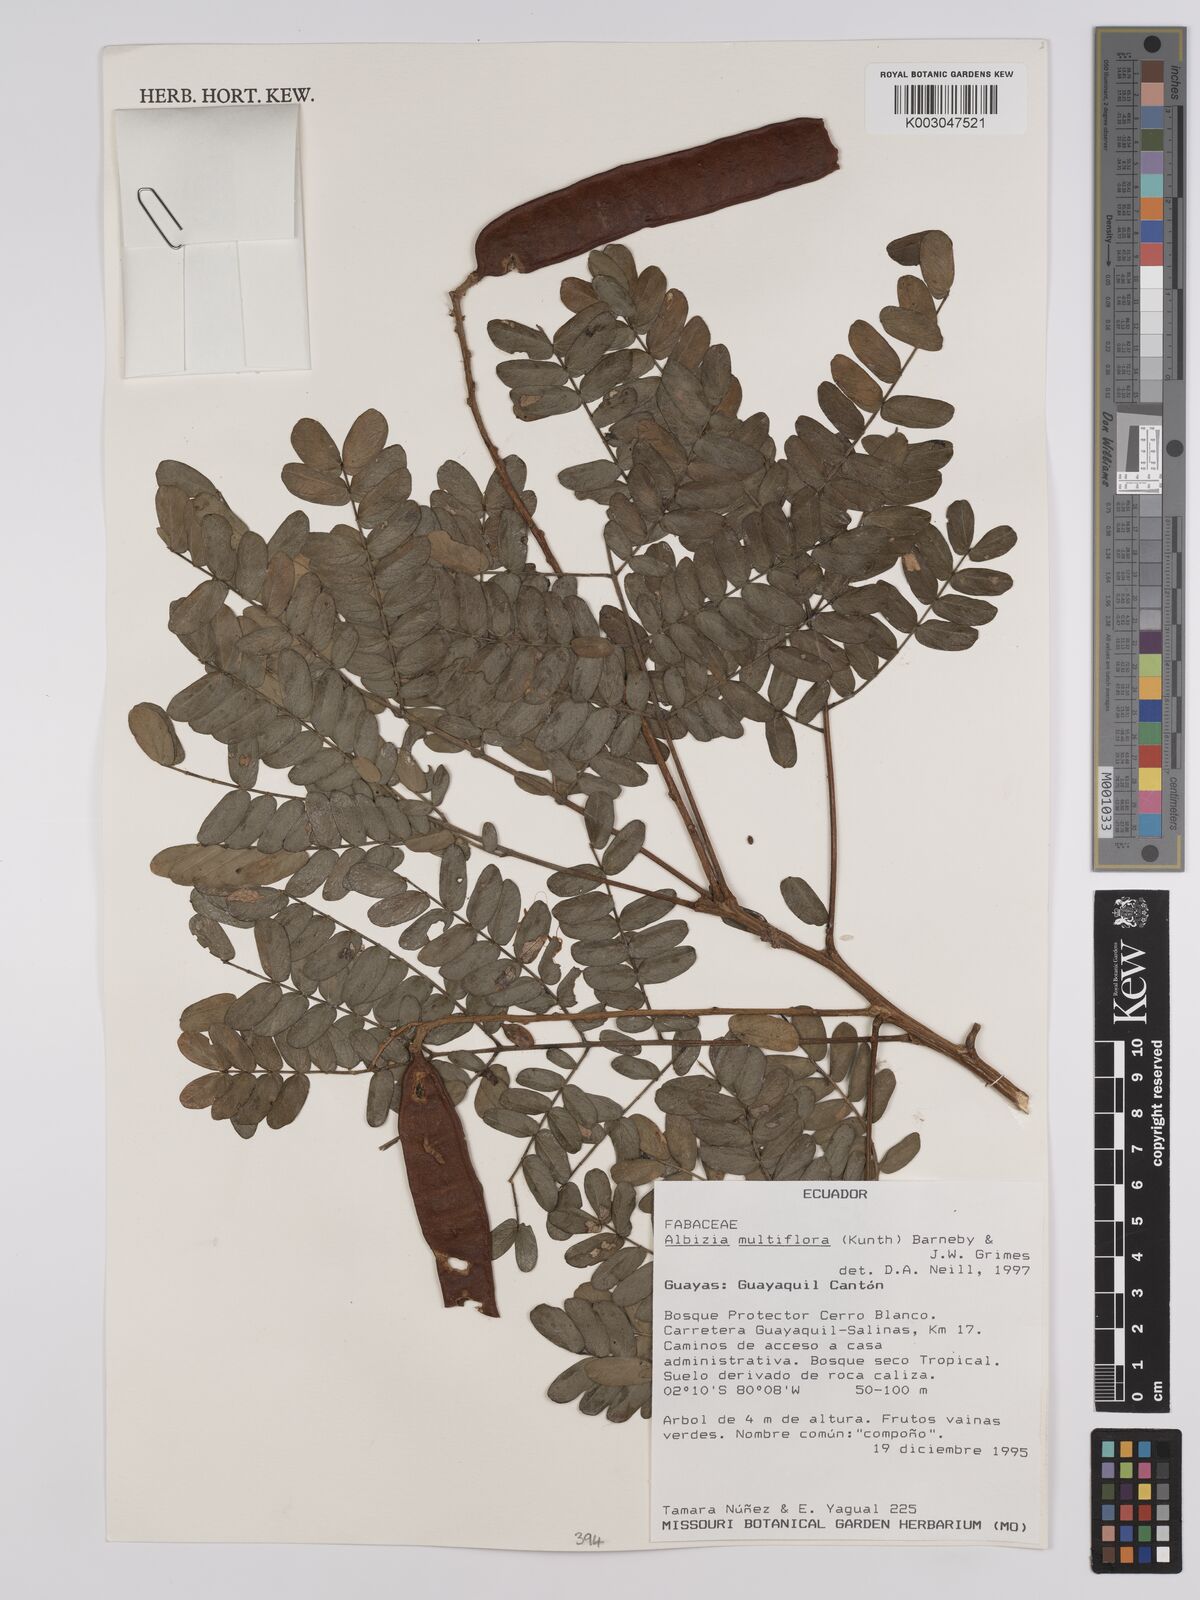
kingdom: Plantae
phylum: Tracheophyta
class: Magnoliopsida
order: Fabales
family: Fabaceae
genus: Albizia
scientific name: Albizia multiflora
